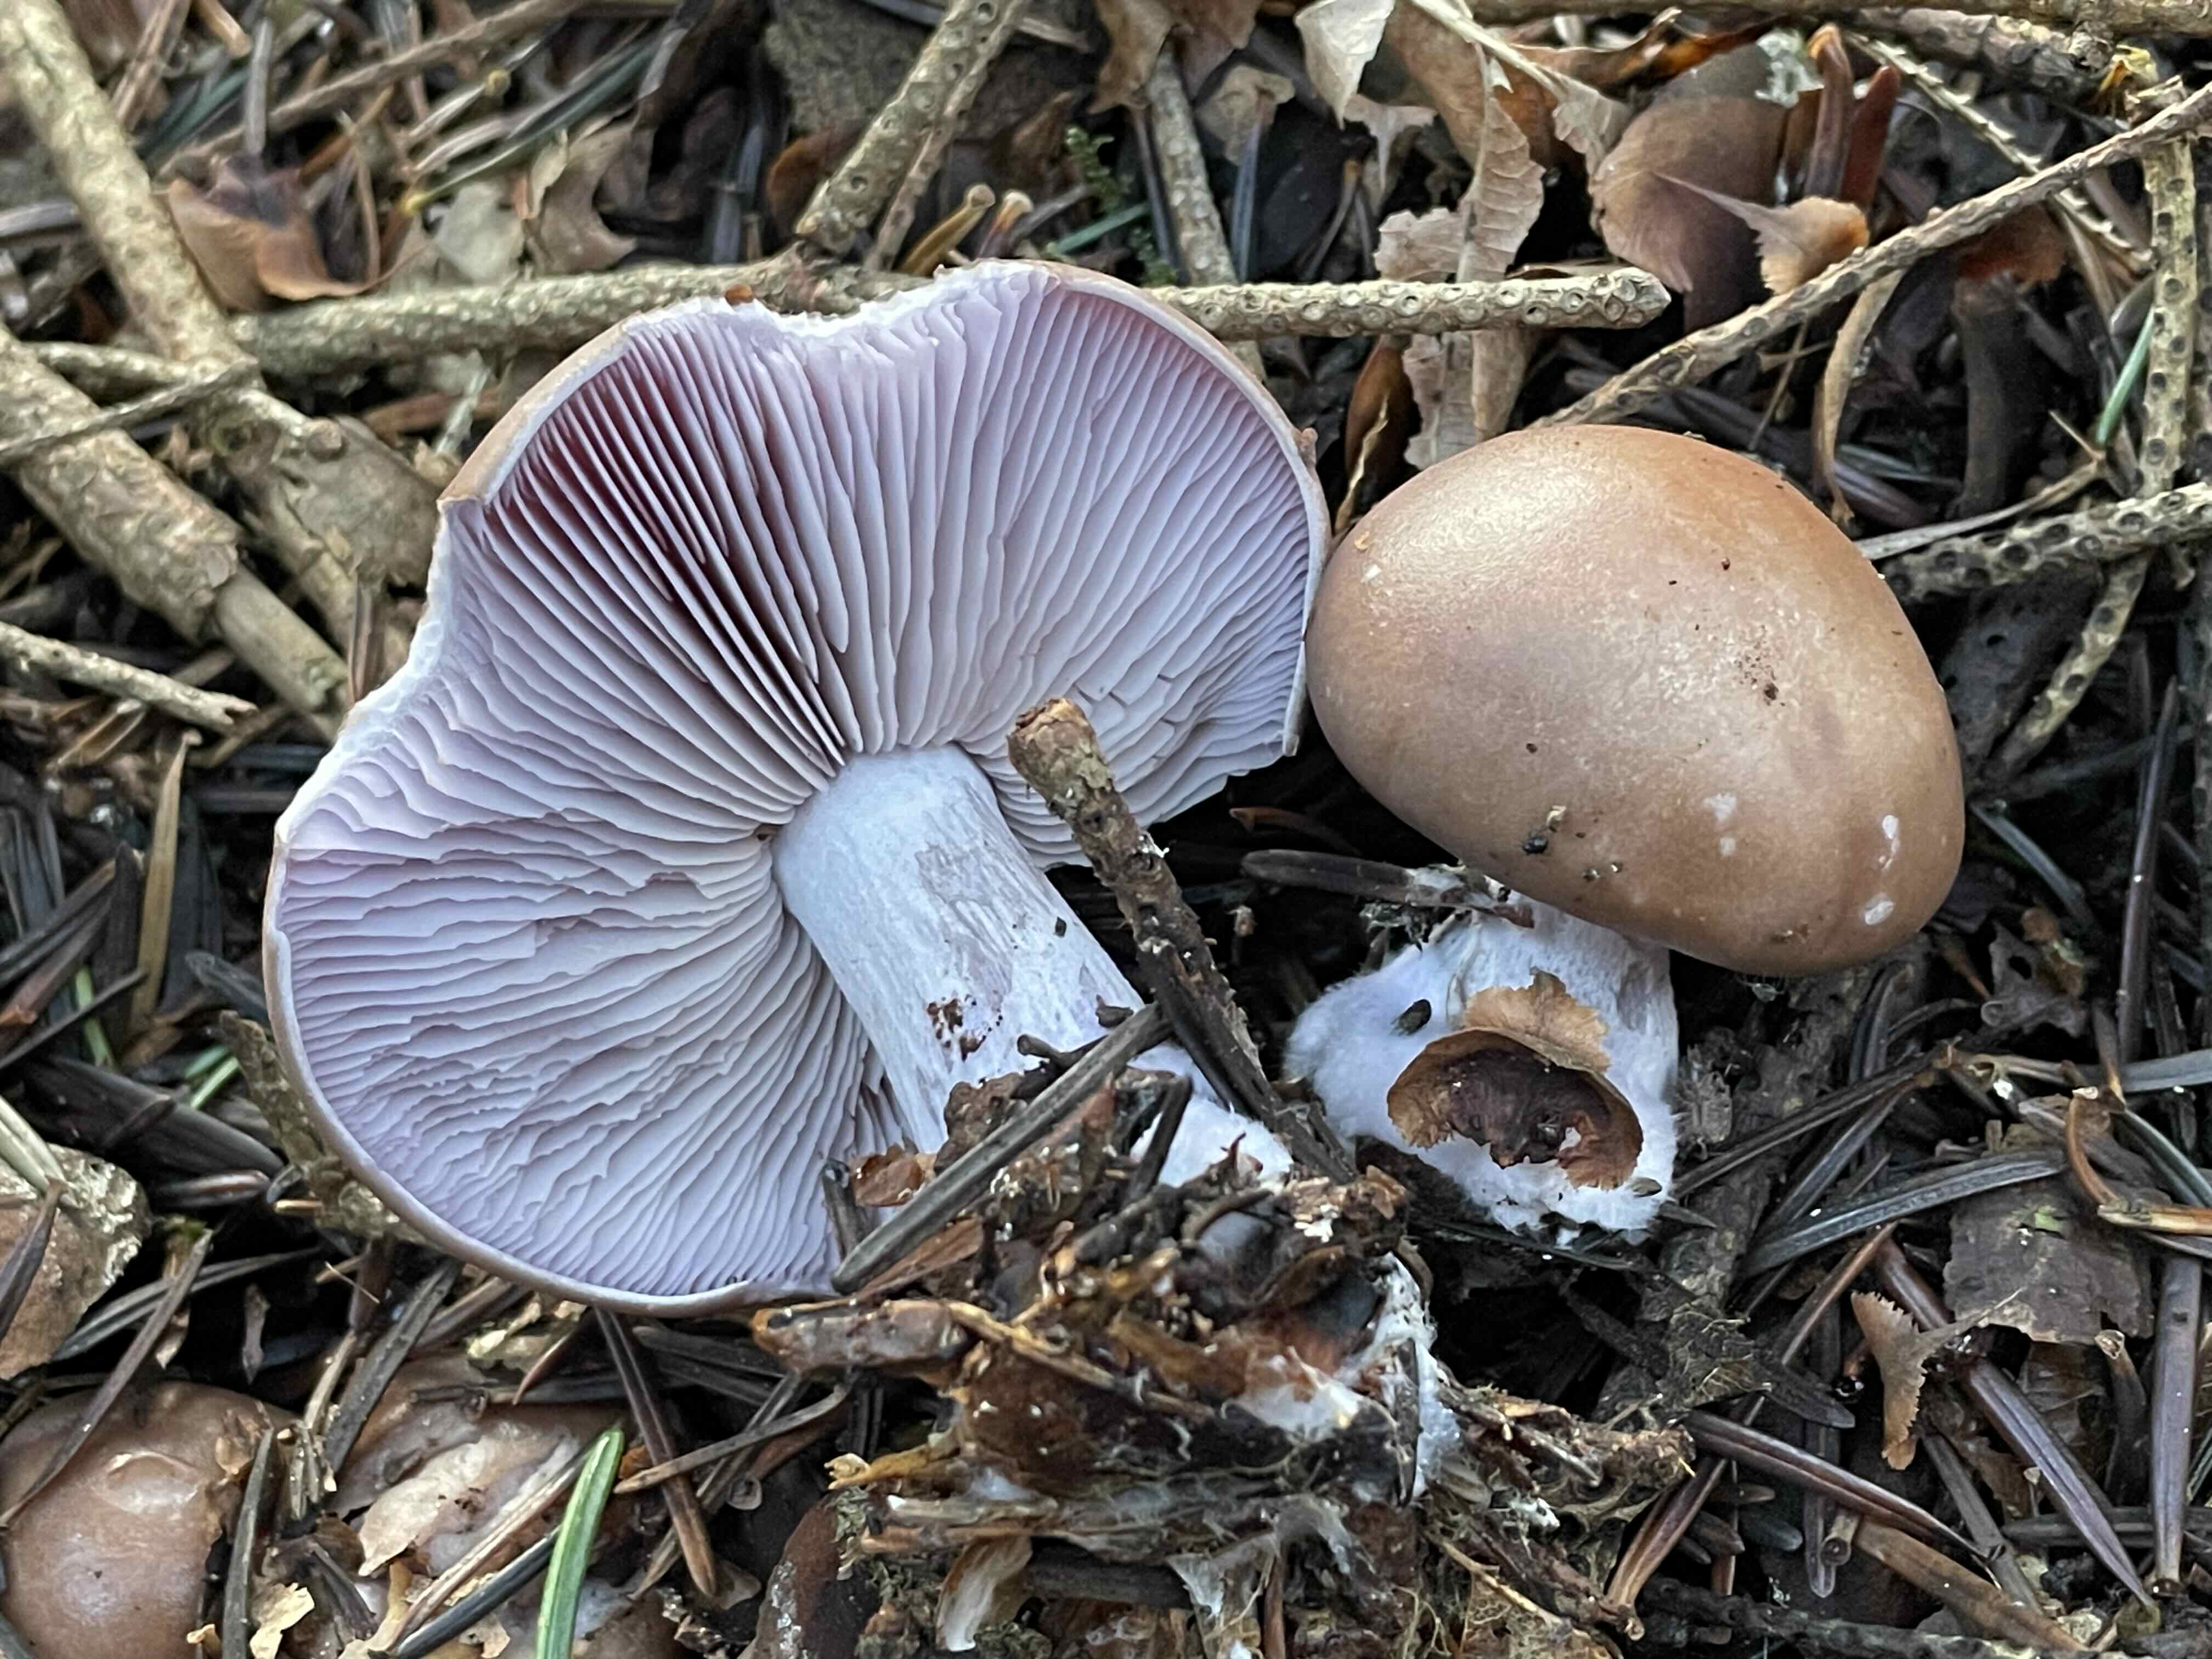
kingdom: Fungi
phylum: Basidiomycota
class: Agaricomycetes
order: Agaricales
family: Tricholomataceae
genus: Lepista
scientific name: Lepista nuda
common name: violet hekseringshat
